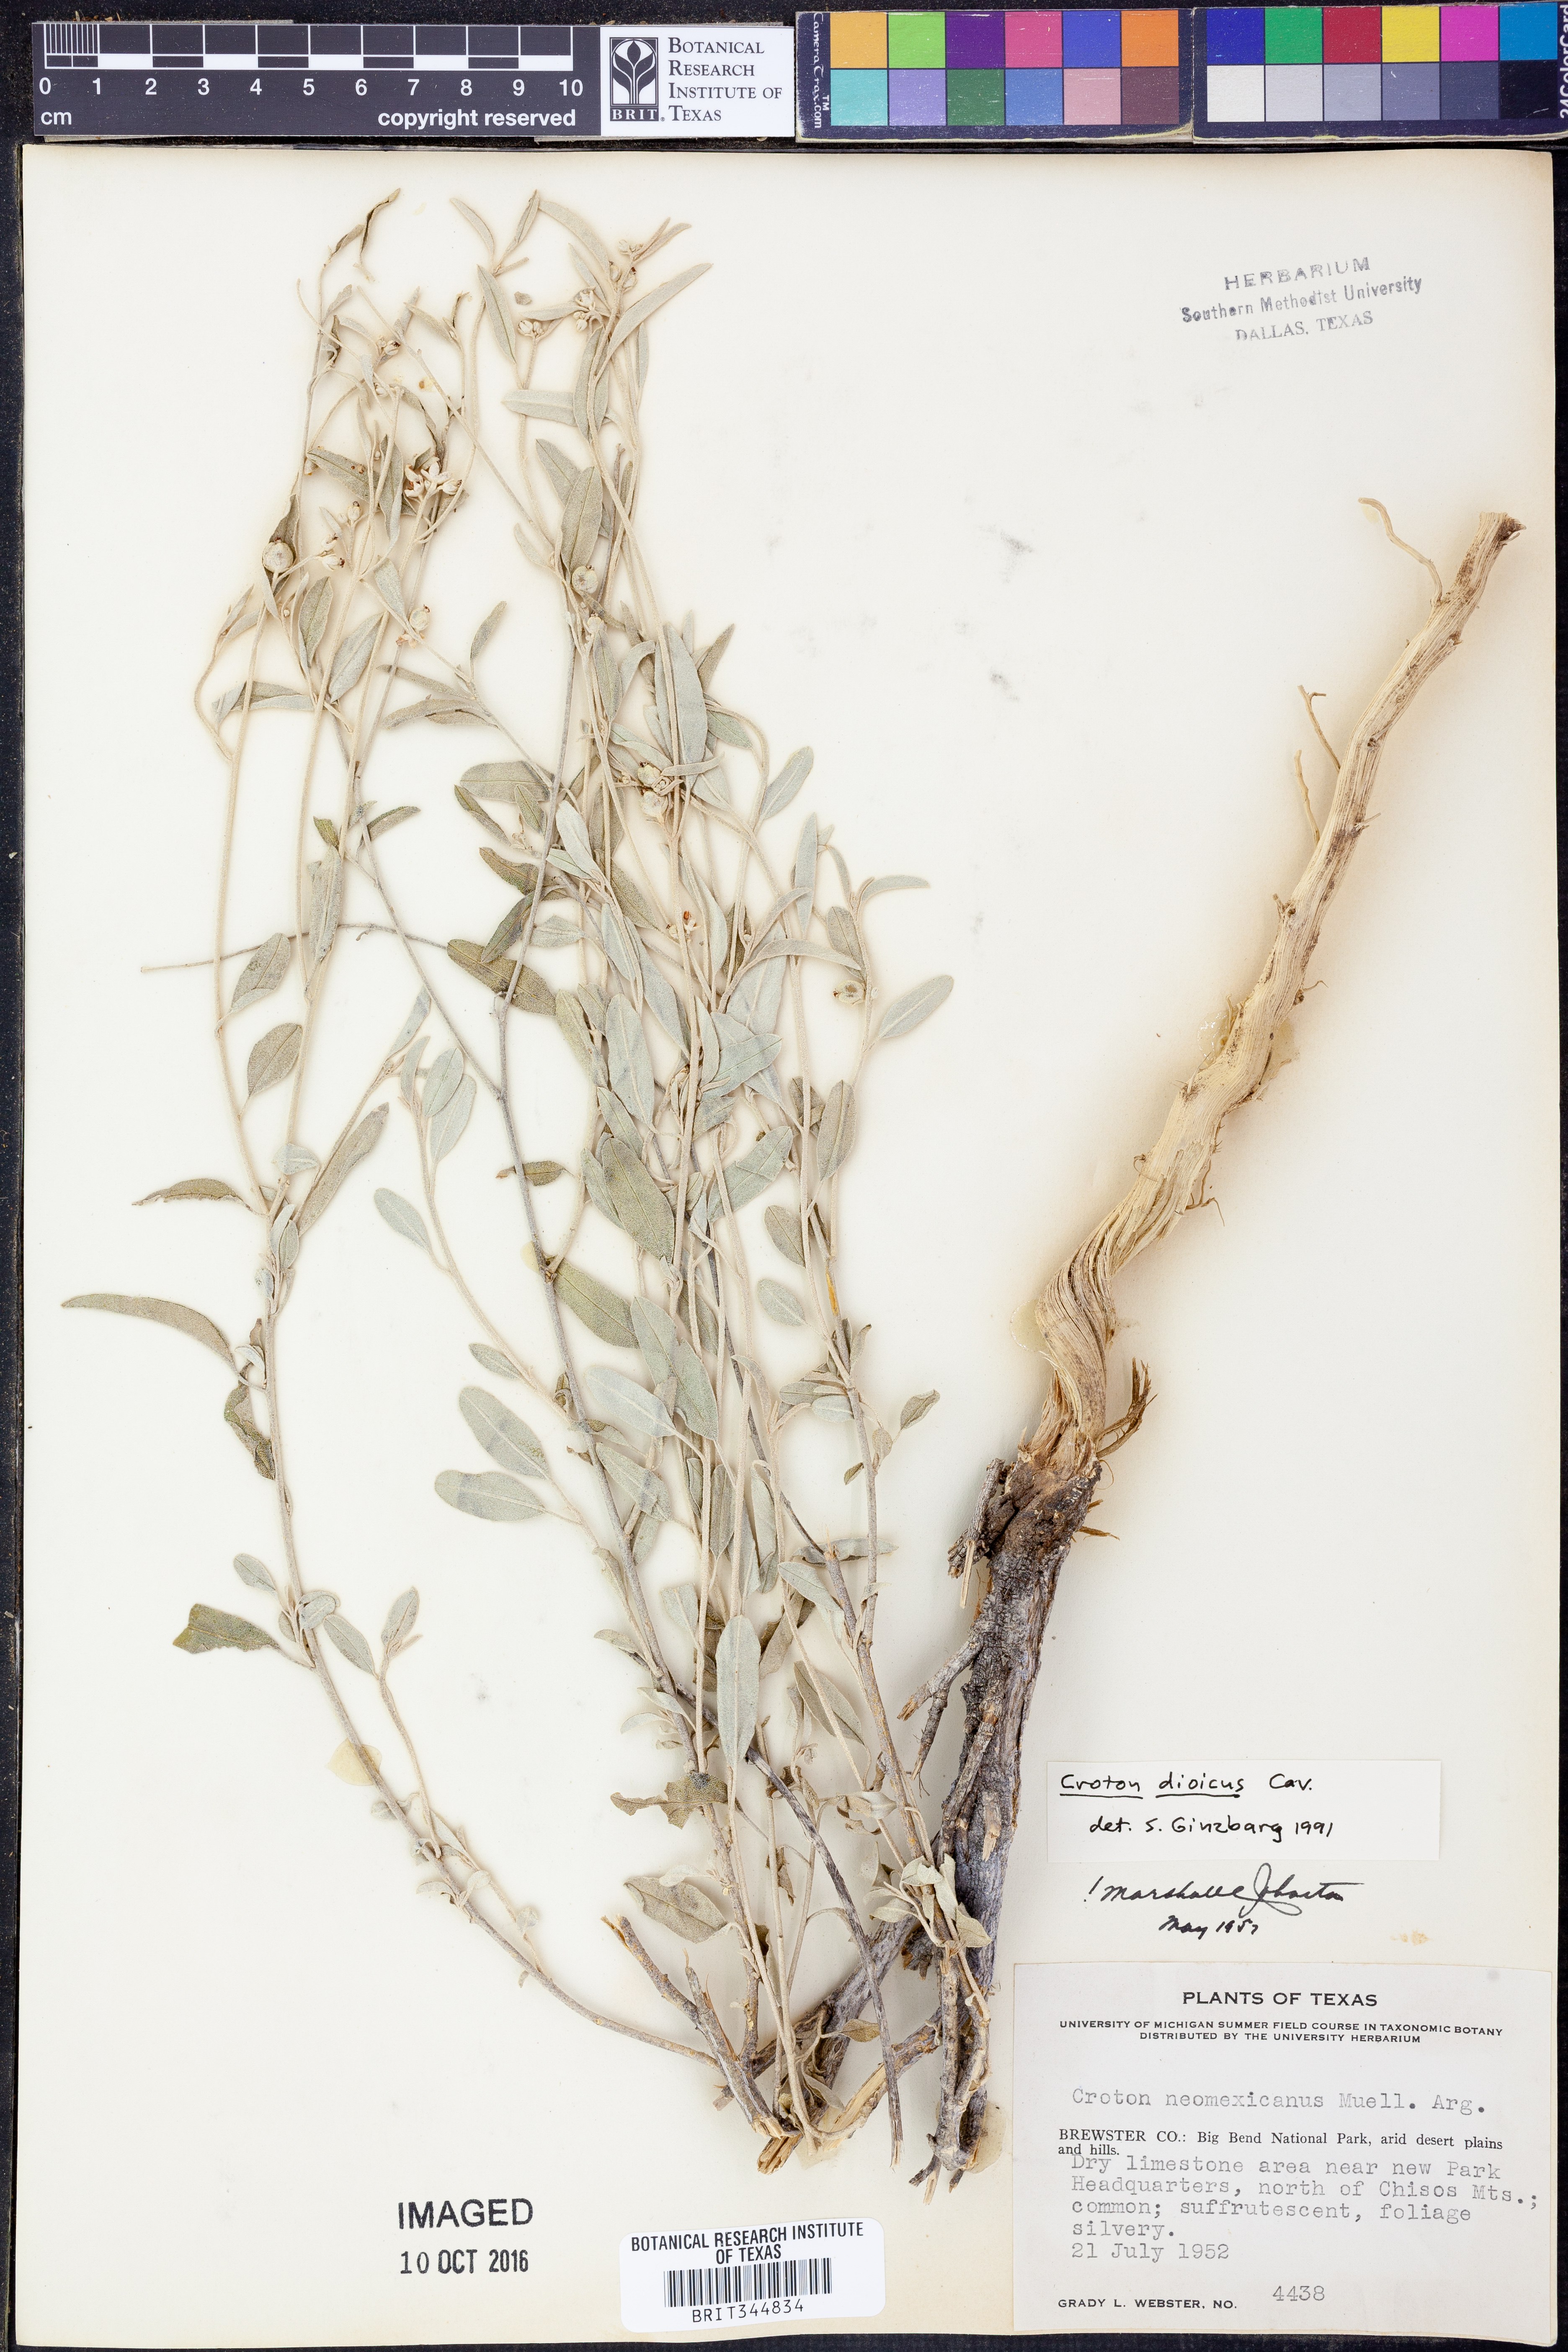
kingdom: Plantae
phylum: Tracheophyta
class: Magnoliopsida
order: Malpighiales
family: Euphorbiaceae
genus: Croton
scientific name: Croton dioicus
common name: Grassland croton
